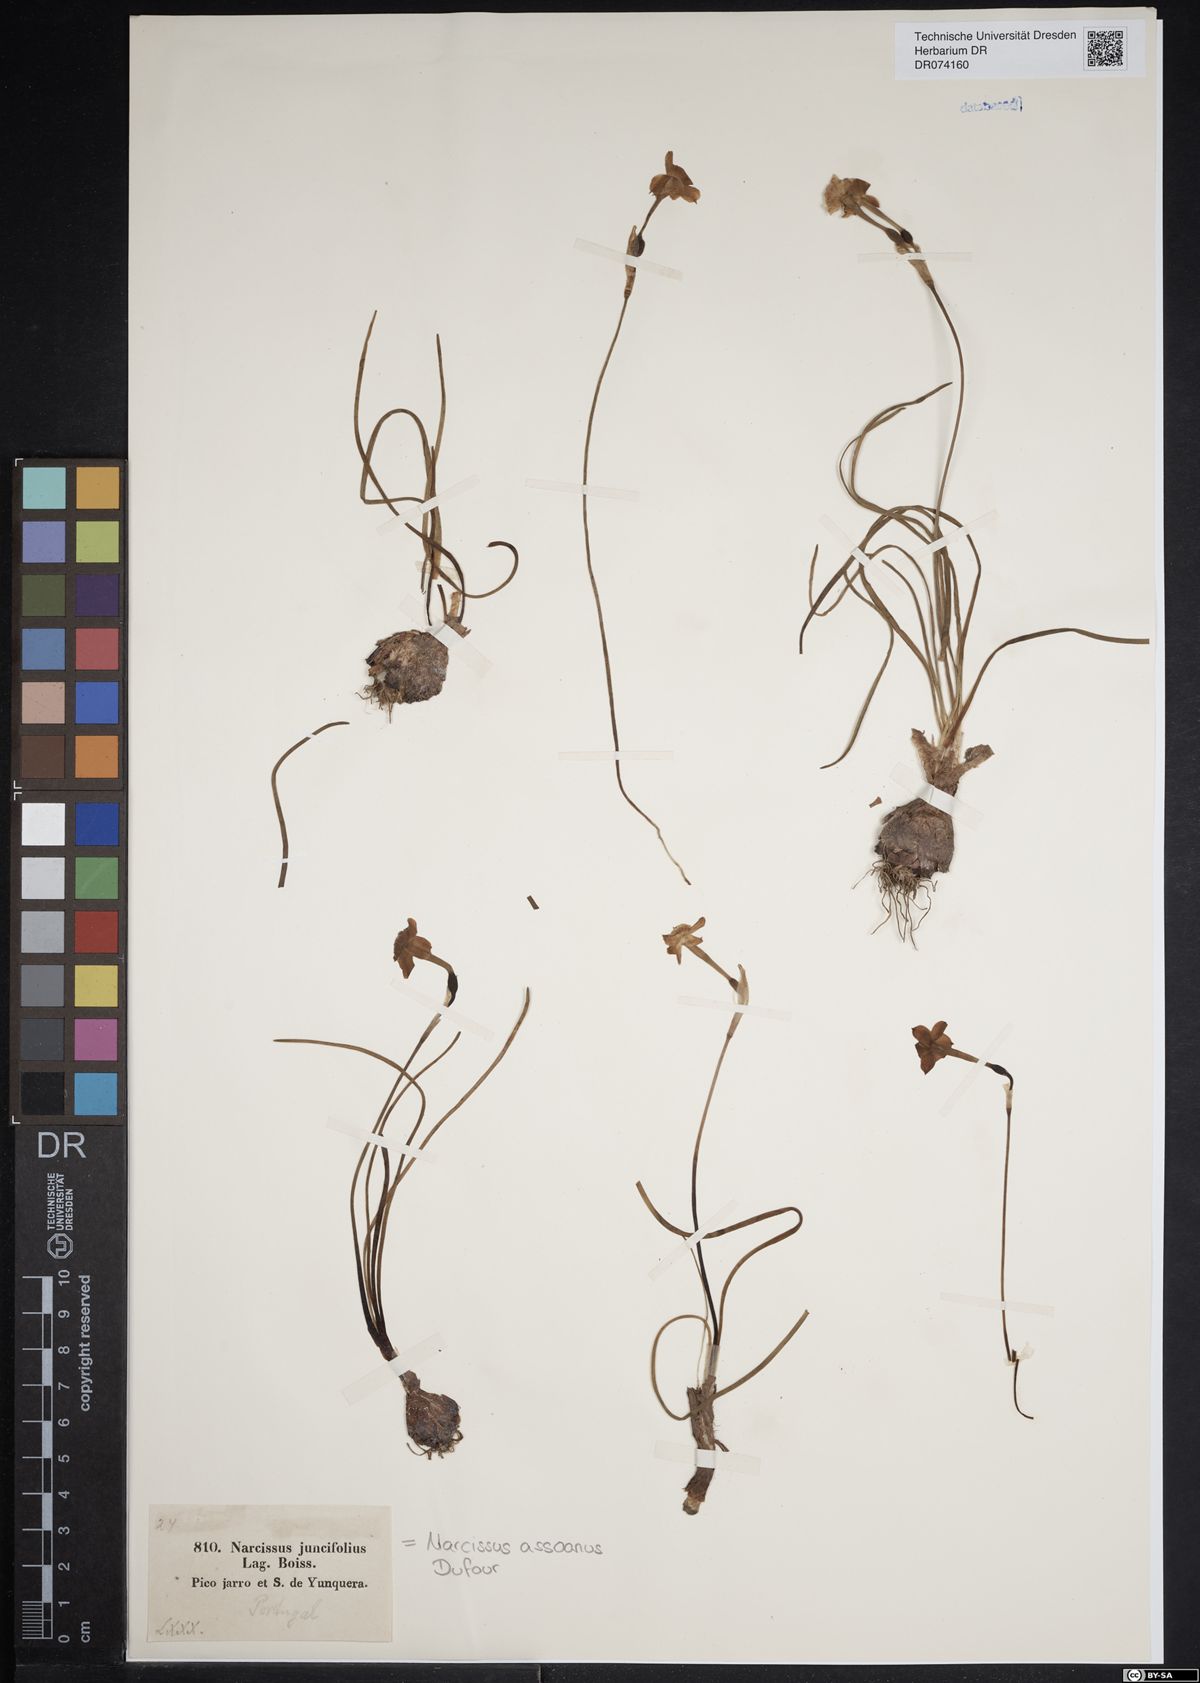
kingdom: Plantae
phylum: Tracheophyta
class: Liliopsida
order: Asparagales
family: Amaryllidaceae
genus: Narcissus
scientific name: Narcissus assoanus
